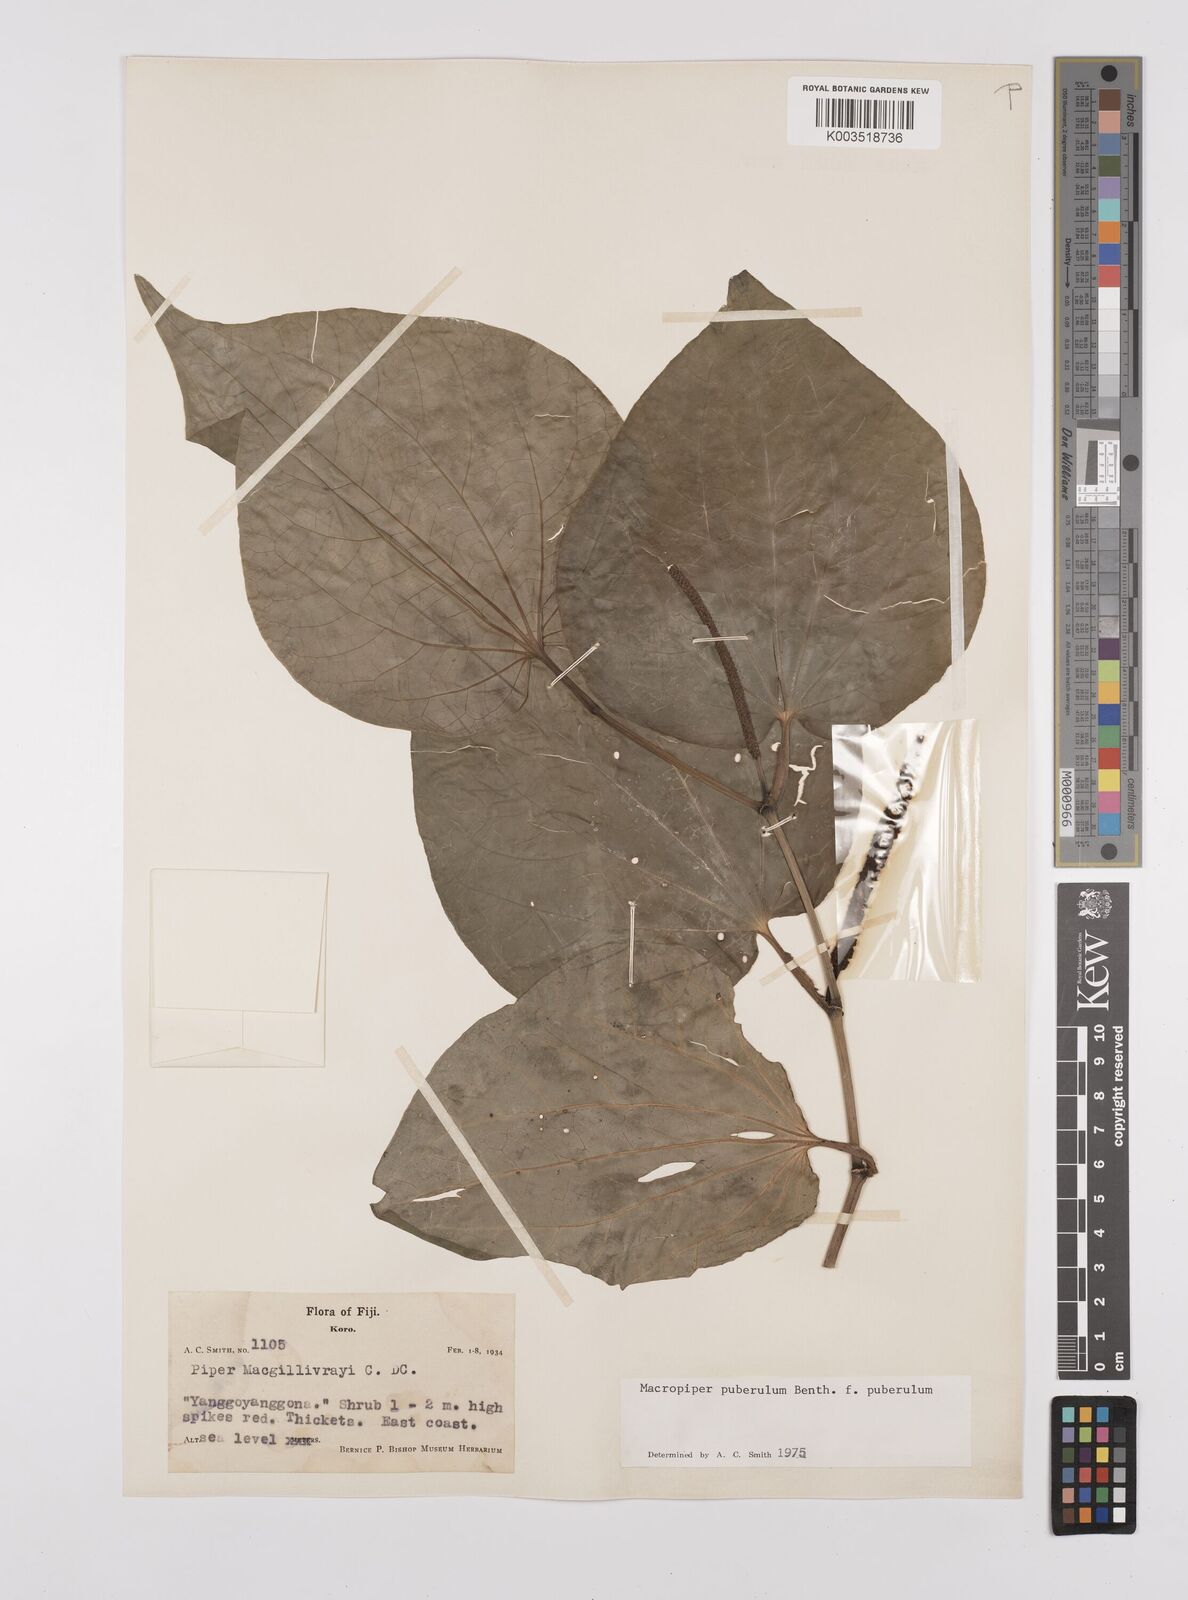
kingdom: Plantae
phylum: Tracheophyta
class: Magnoliopsida
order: Piperales
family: Piperaceae
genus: Macropiper
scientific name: Macropiper puberulum
